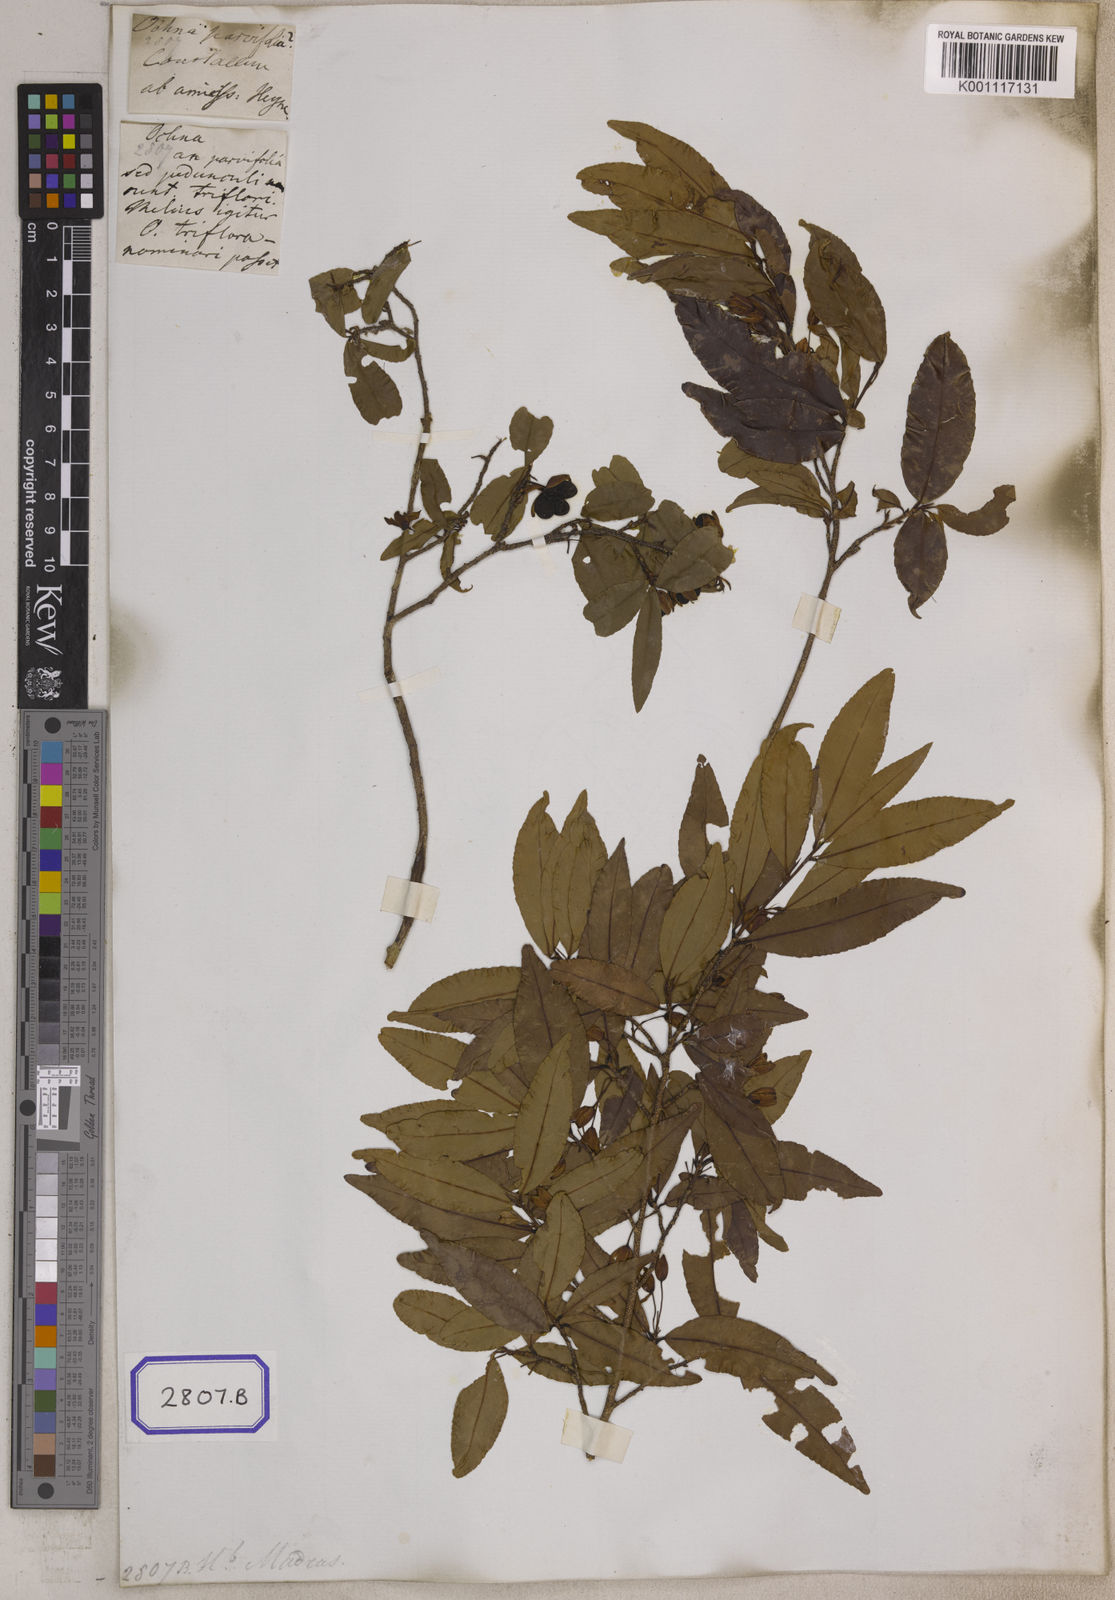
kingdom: Plantae
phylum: Tracheophyta
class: Magnoliopsida
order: Malpighiales
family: Ochnaceae
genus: Ochna
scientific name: Ochna
